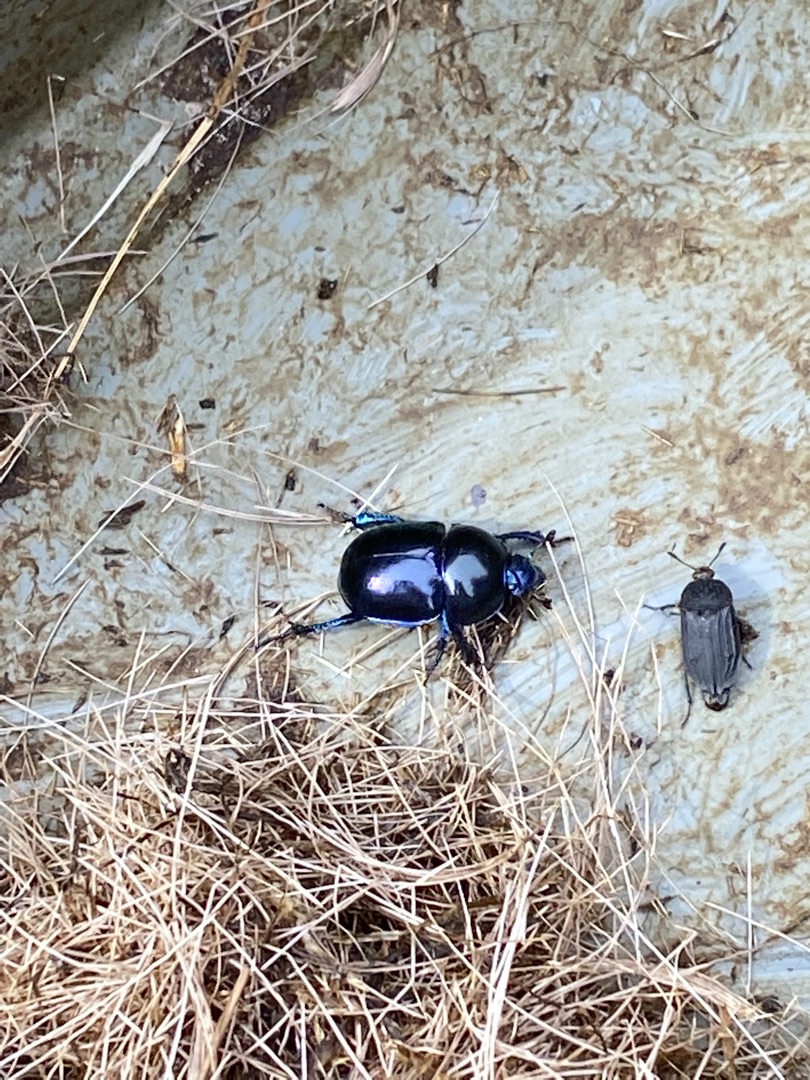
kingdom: Animalia
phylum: Arthropoda
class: Insecta
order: Coleoptera
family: Geotrupidae
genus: Trypocopris
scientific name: Trypocopris vernalis
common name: Glat skarnbasse
